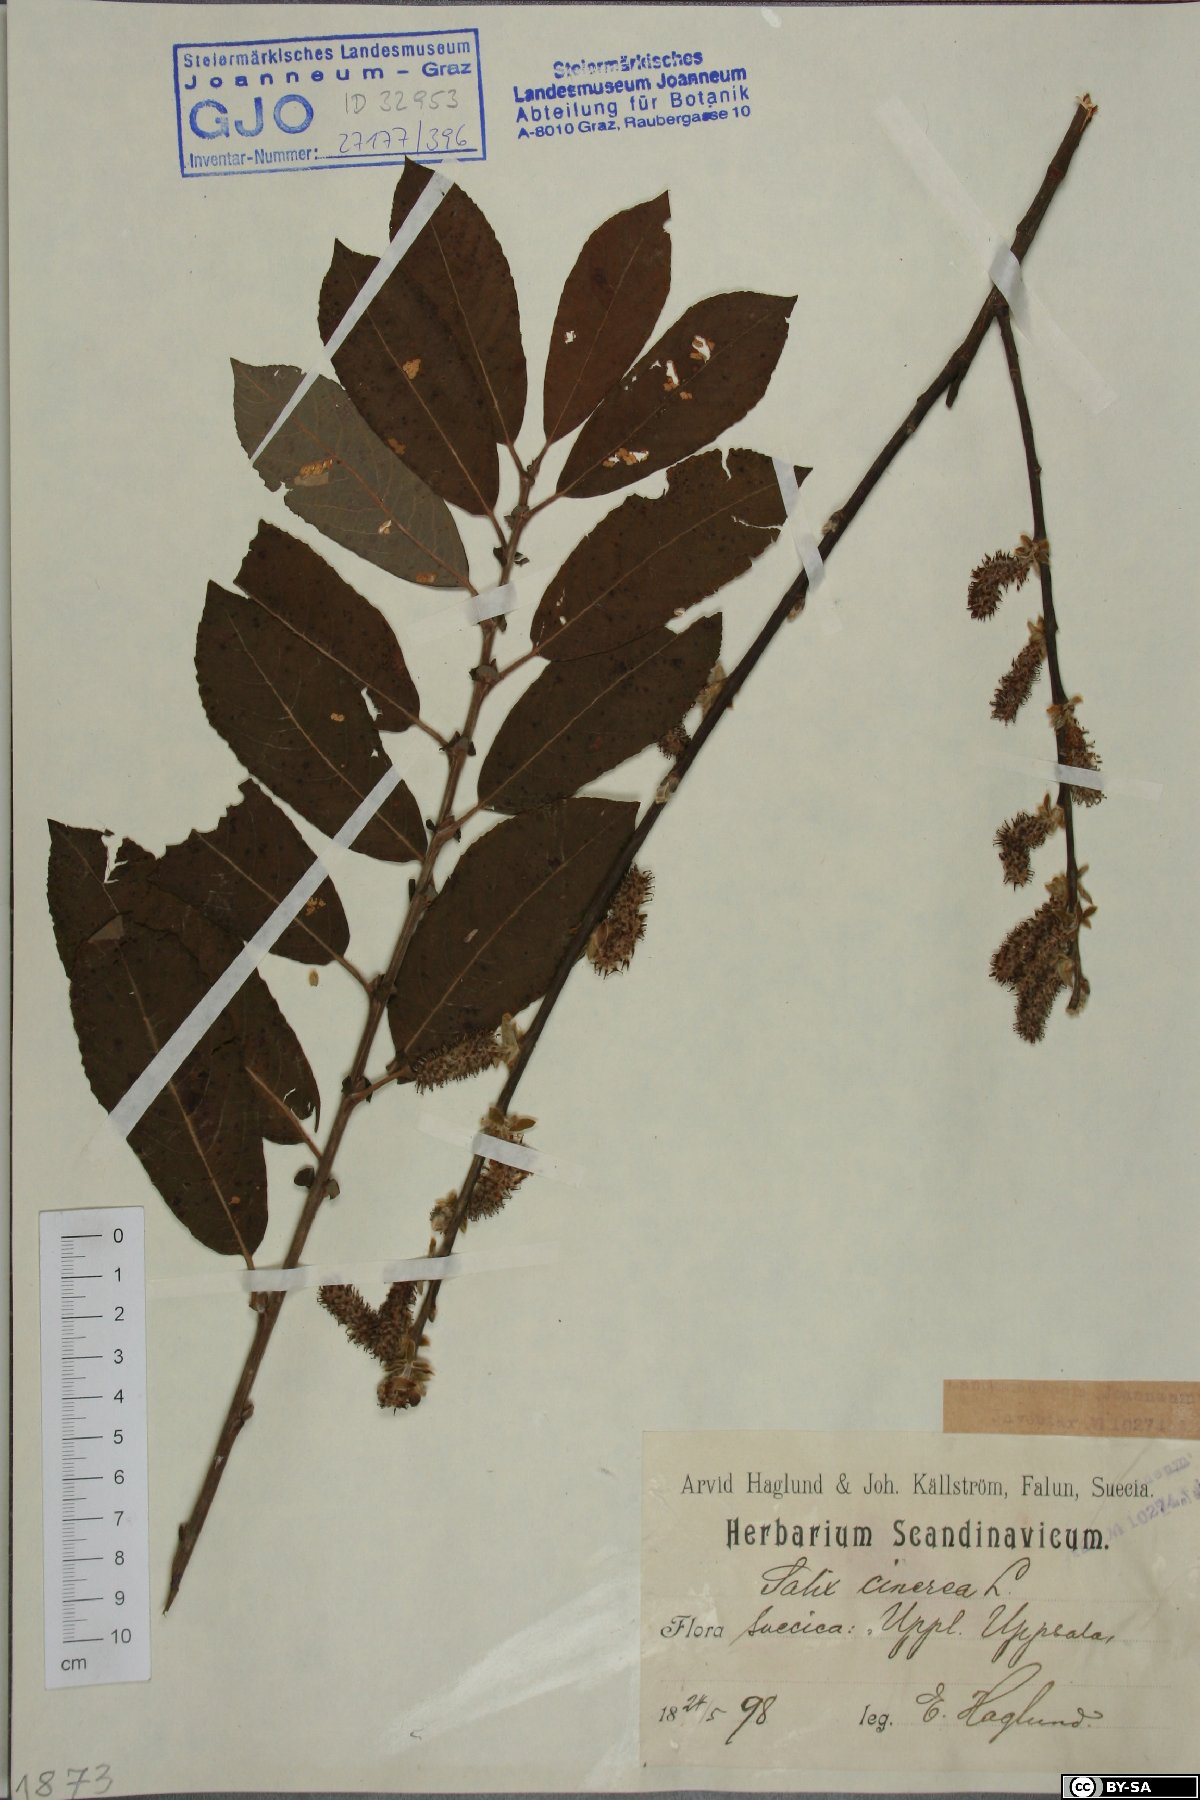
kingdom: Plantae
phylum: Tracheophyta
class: Magnoliopsida
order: Malpighiales
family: Salicaceae
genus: Salix
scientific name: Salix cinerea
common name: Common sallow
